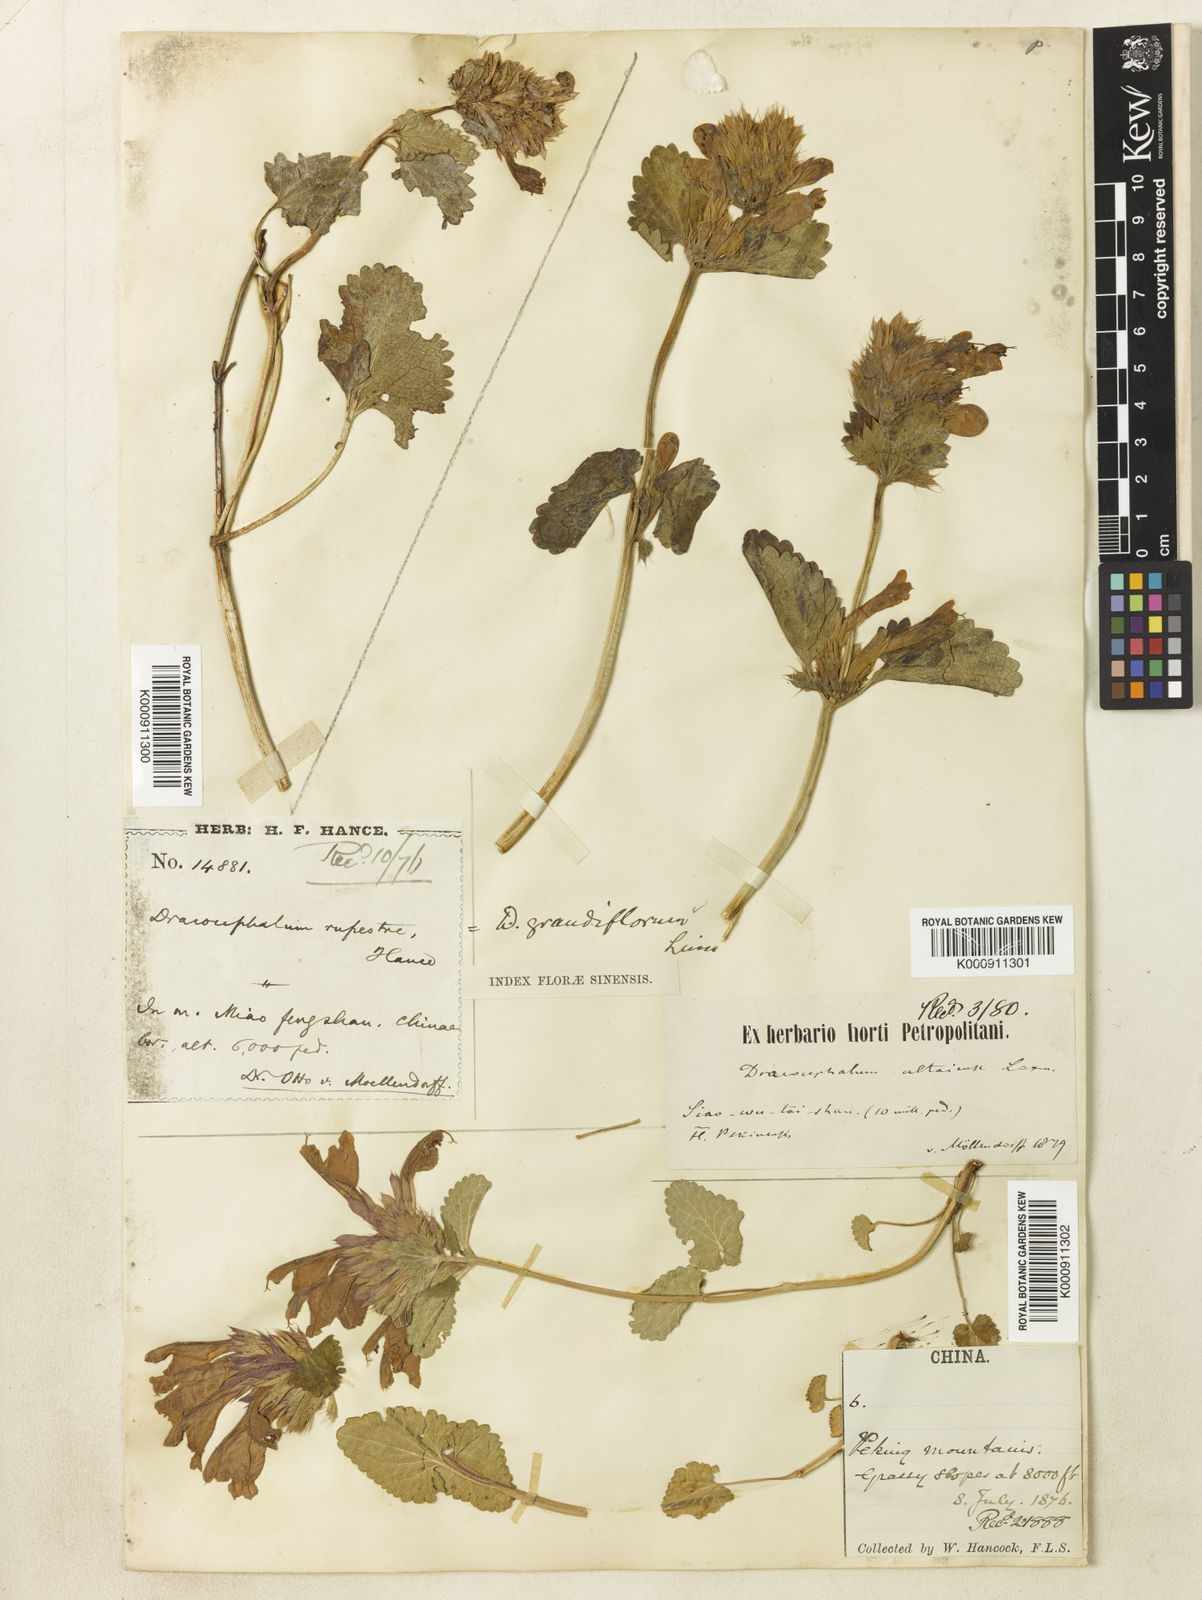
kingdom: Plantae
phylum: Tracheophyta
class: Magnoliopsida
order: Lamiales
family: Lamiaceae
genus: Dracocephalum
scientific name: Dracocephalum rupestre
